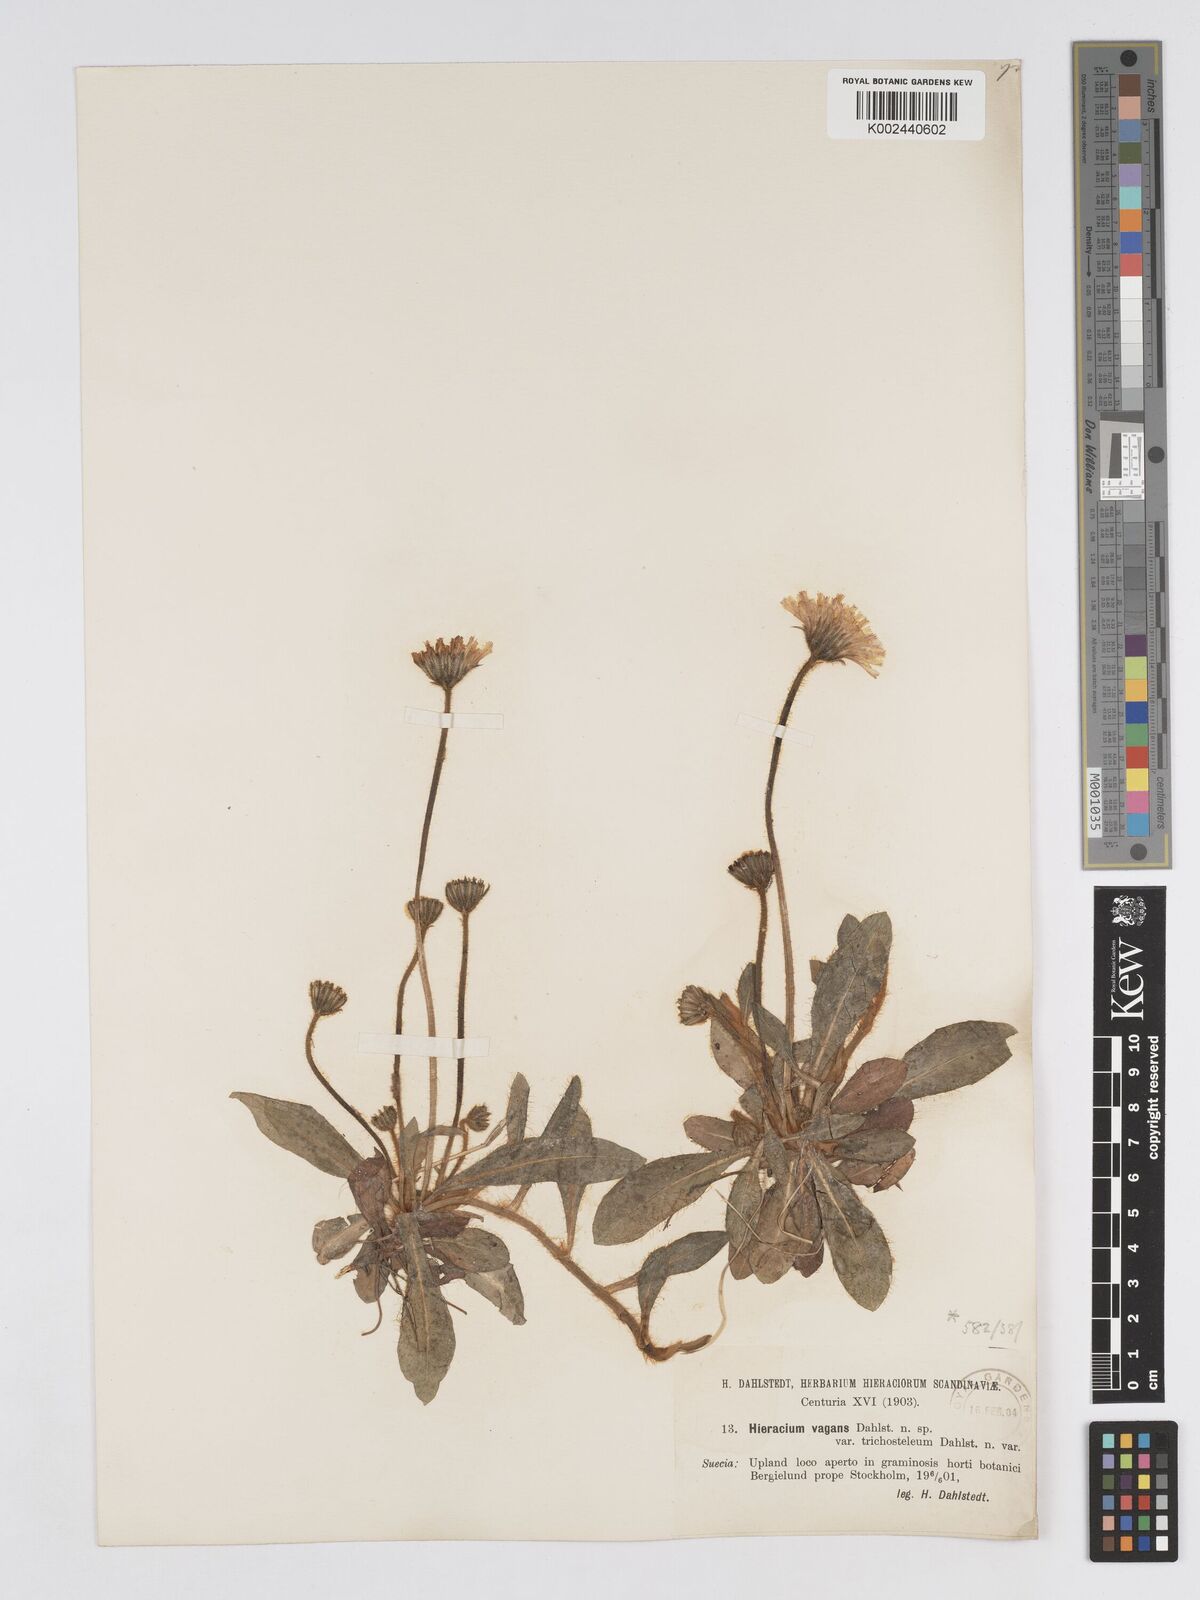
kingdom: Plantae
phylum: Tracheophyta
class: Magnoliopsida
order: Asterales
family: Asteraceae
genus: Pilosella
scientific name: Pilosella longisquama
